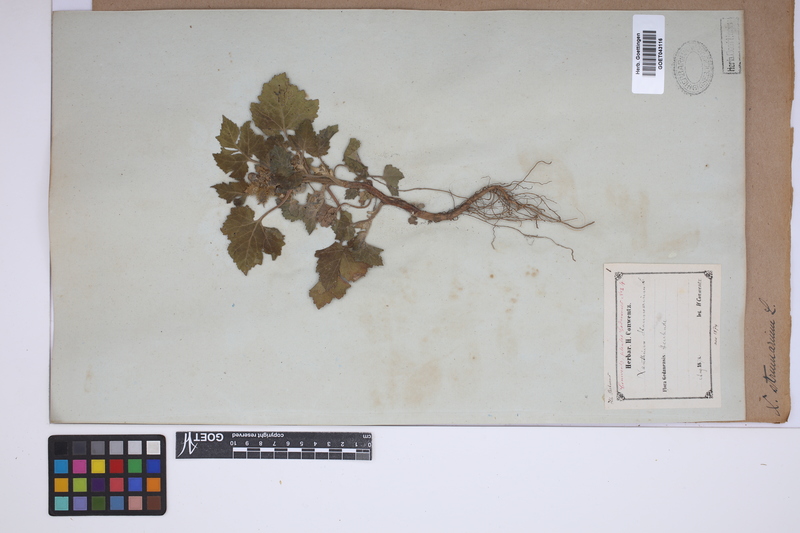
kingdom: Plantae
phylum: Tracheophyta
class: Magnoliopsida
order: Asterales
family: Asteraceae
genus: Xanthium
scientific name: Xanthium strumarium
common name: Rough cocklebur
